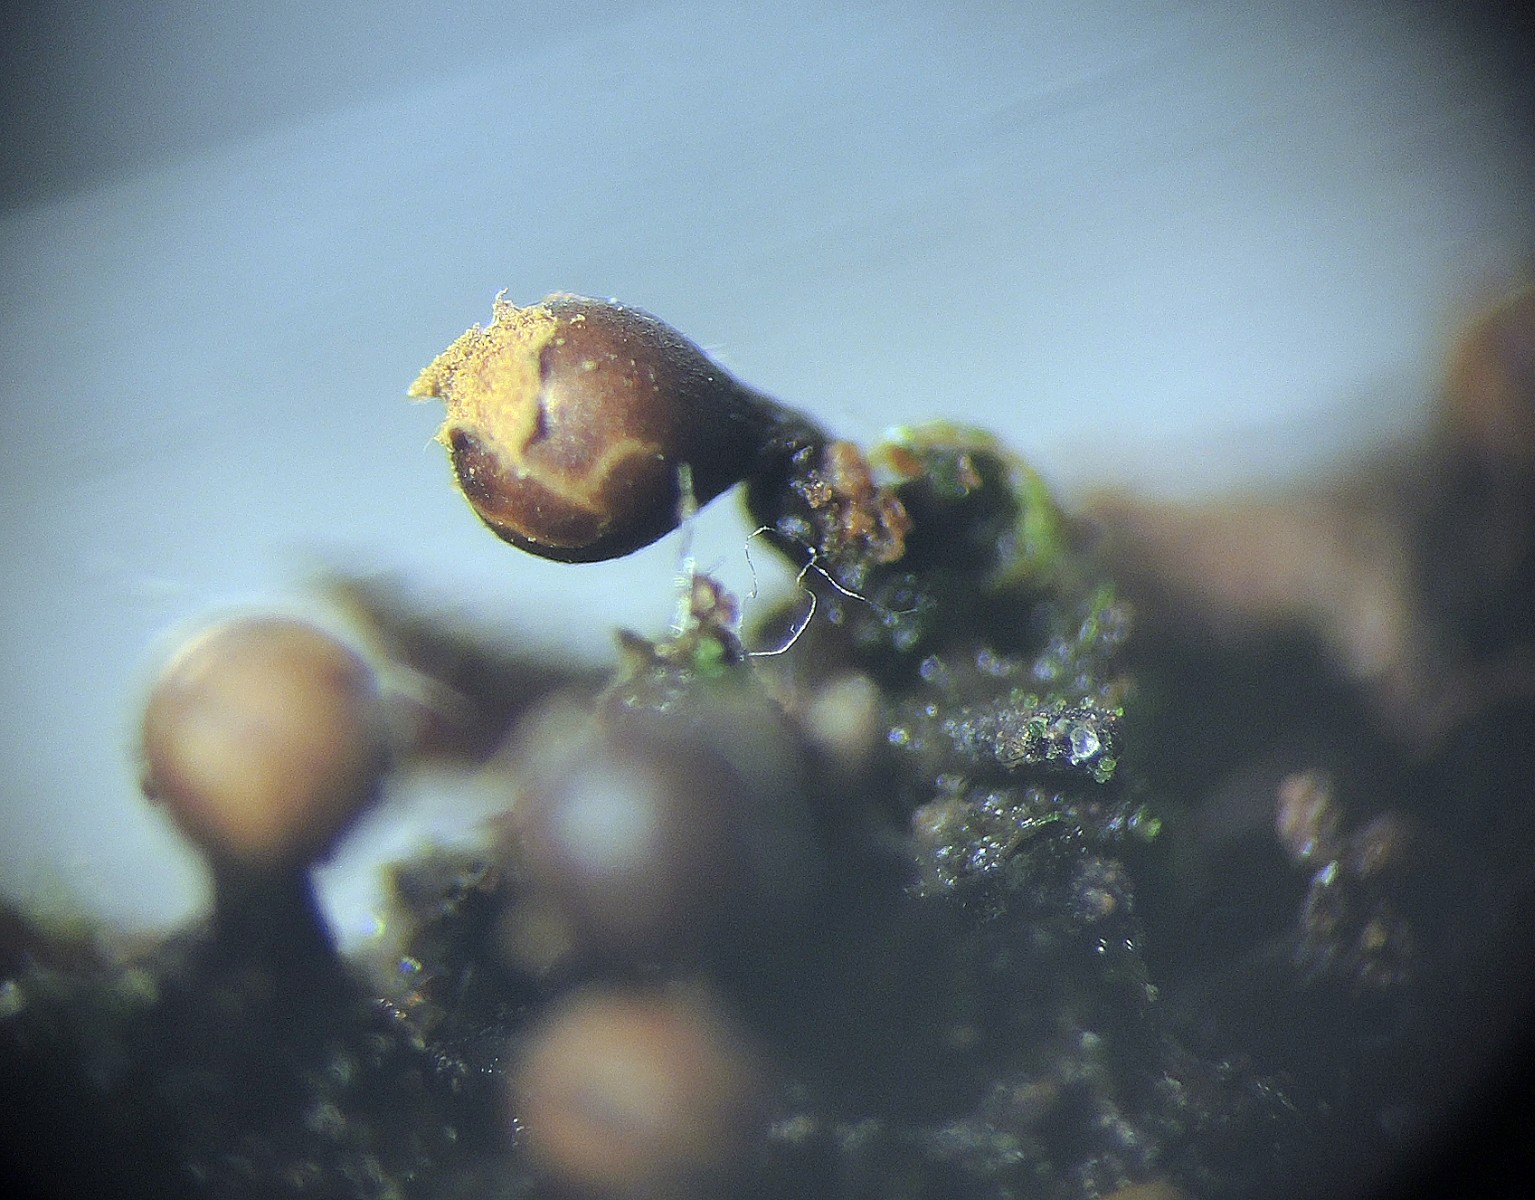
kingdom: Protozoa
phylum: Mycetozoa
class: Myxomycetes
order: Trichiales
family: Trichiaceae
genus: Trichia
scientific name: Trichia botrytis
